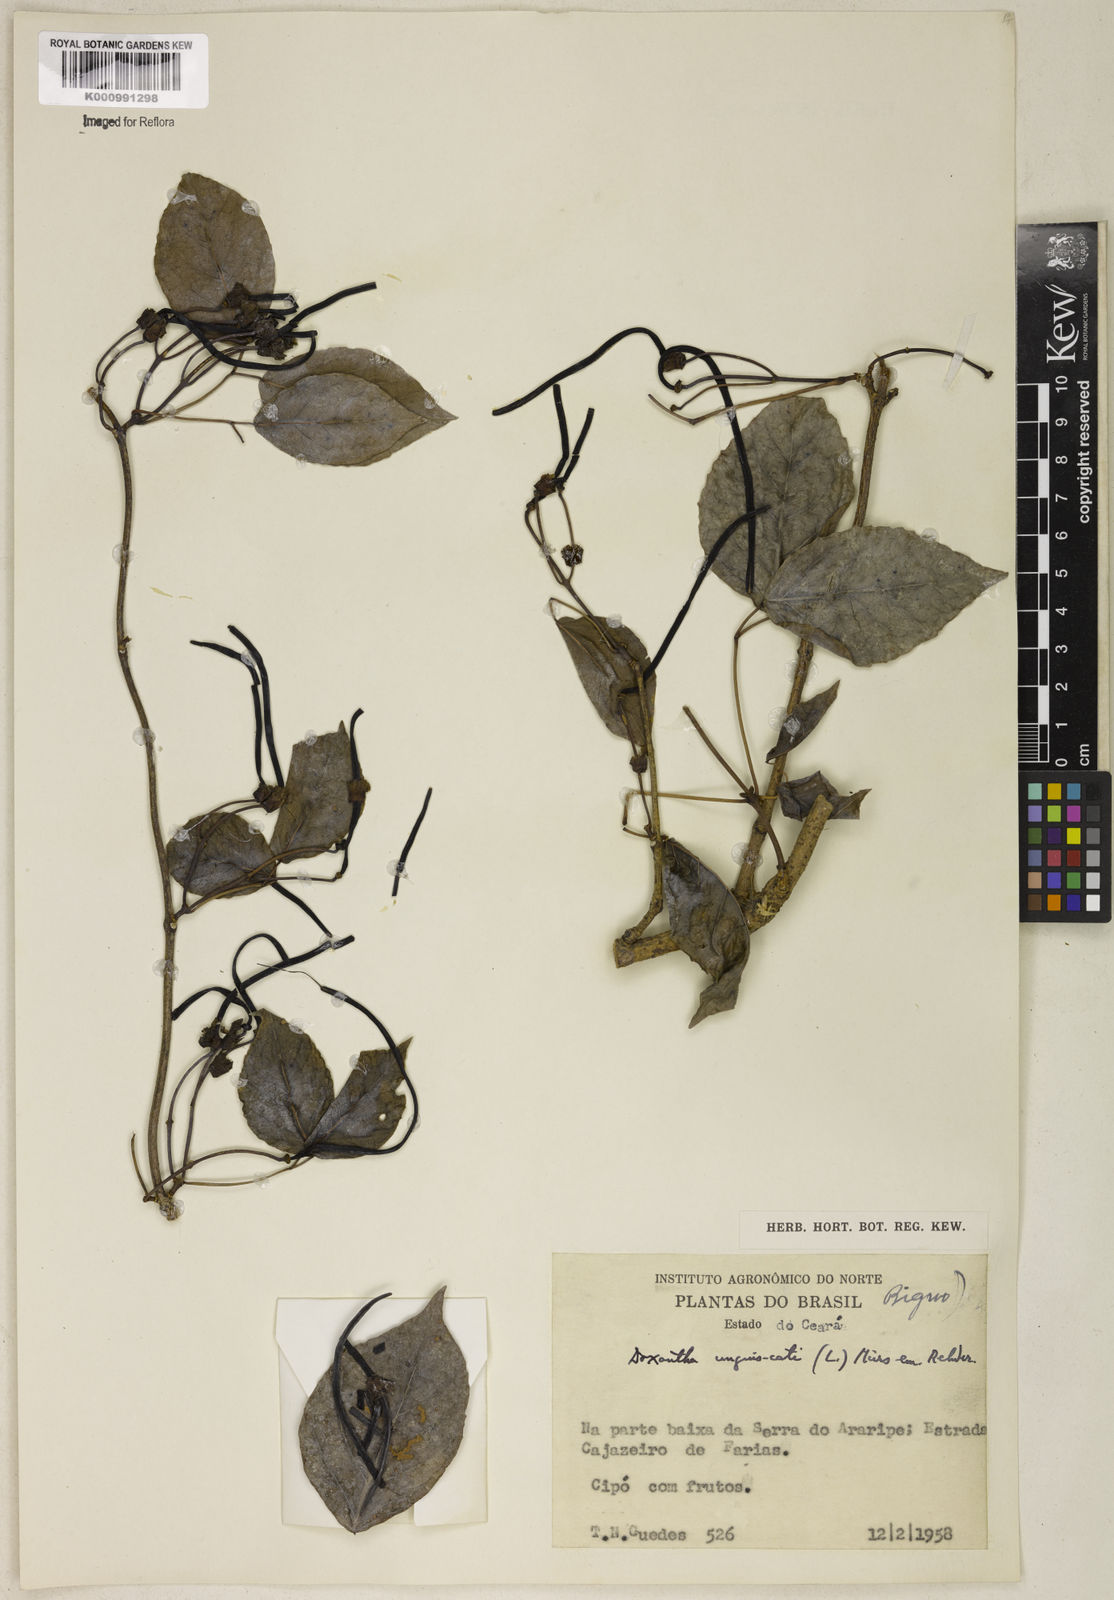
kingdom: Animalia
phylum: Chordata
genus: Macfadyena
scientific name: Macfadyena
